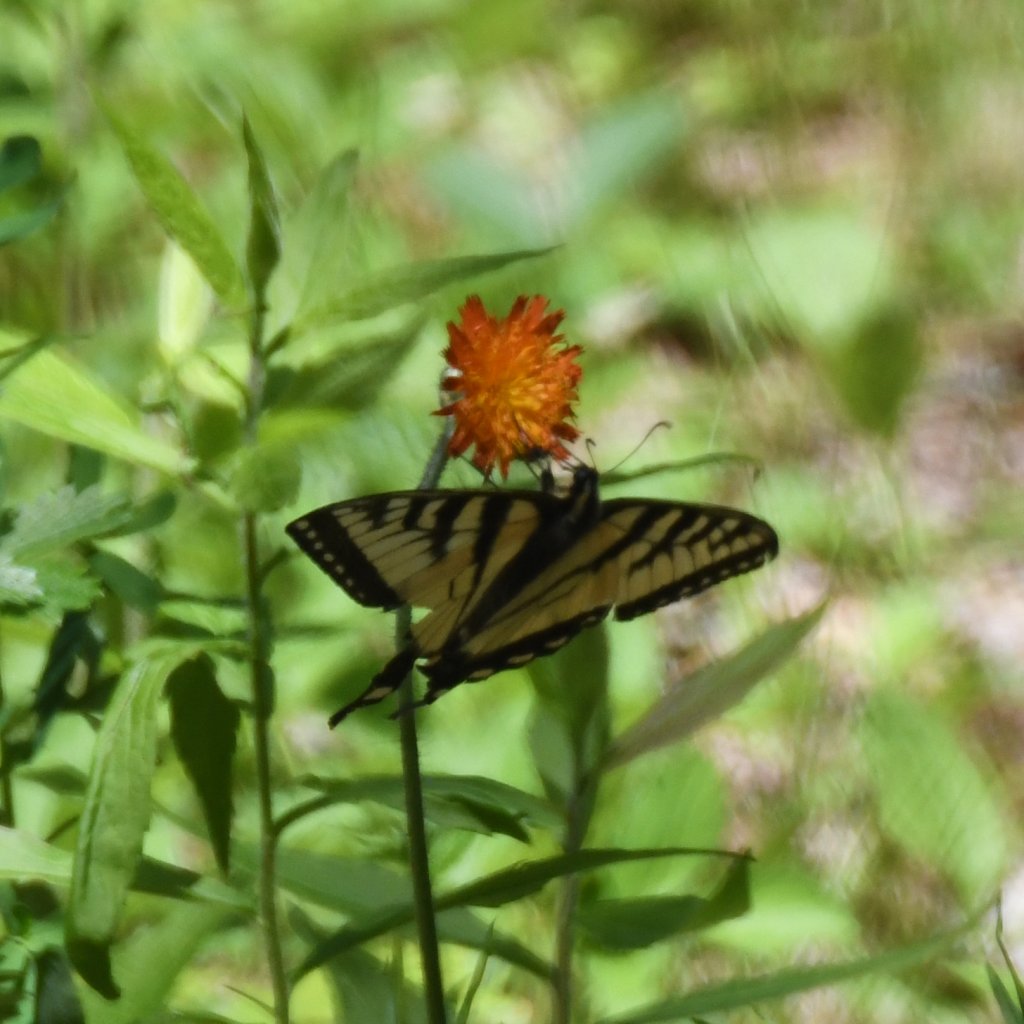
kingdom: Animalia
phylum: Arthropoda
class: Insecta
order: Lepidoptera
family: Papilionidae
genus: Pterourus
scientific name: Pterourus canadensis
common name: Canadian Tiger Swallowtail
